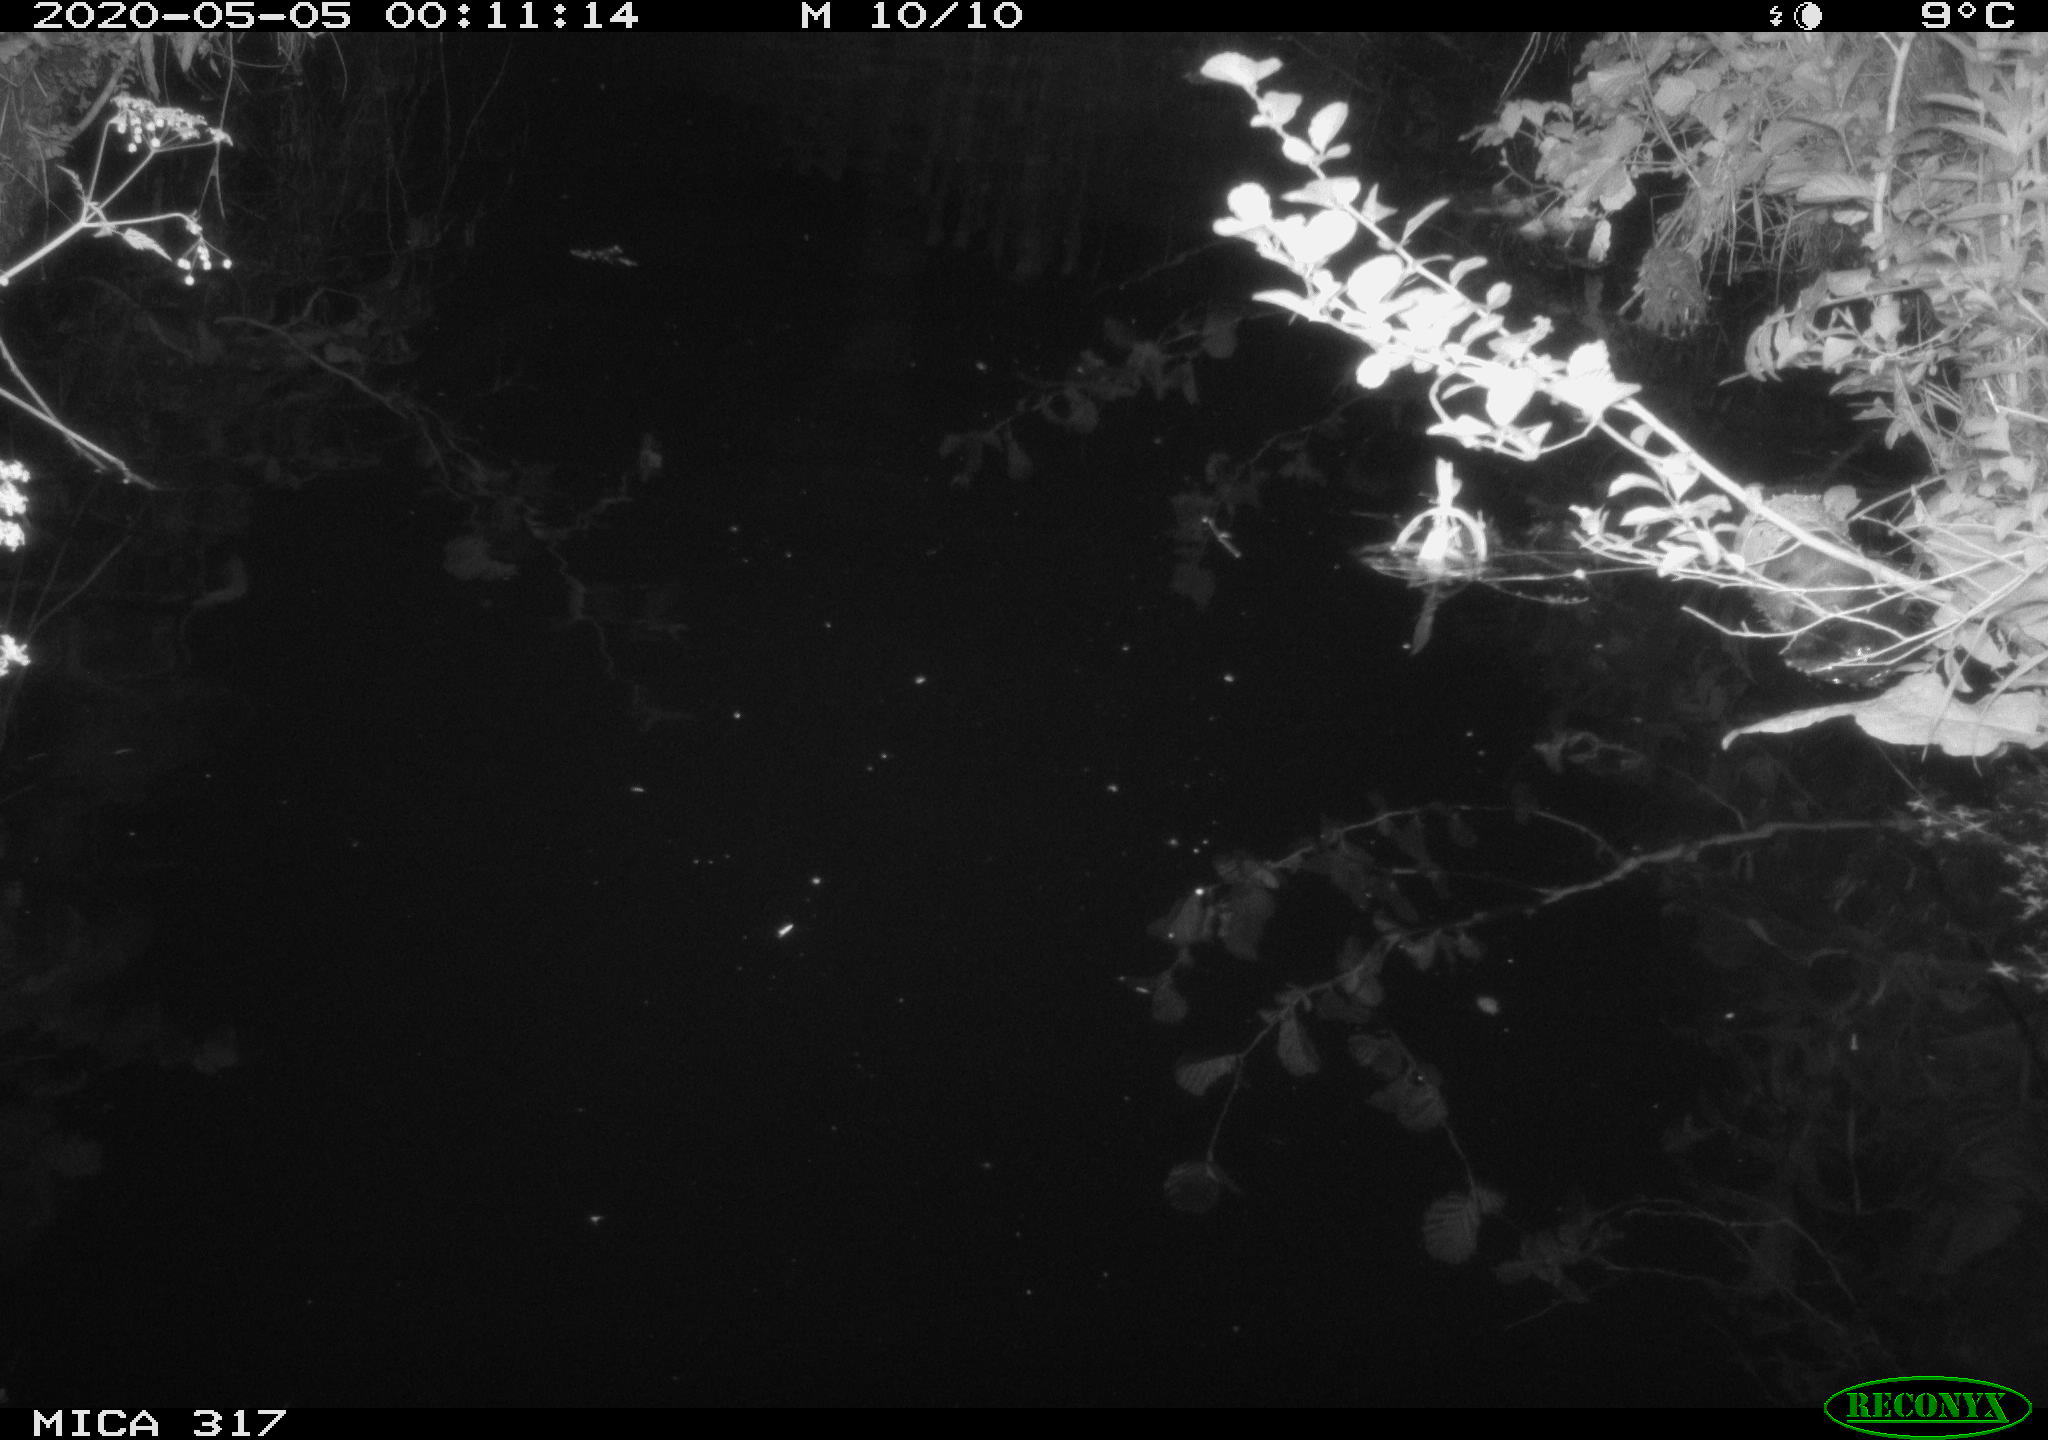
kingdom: Animalia
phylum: Chordata
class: Aves
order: Anseriformes
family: Anatidae
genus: Anas
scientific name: Anas platyrhynchos
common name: Mallard
